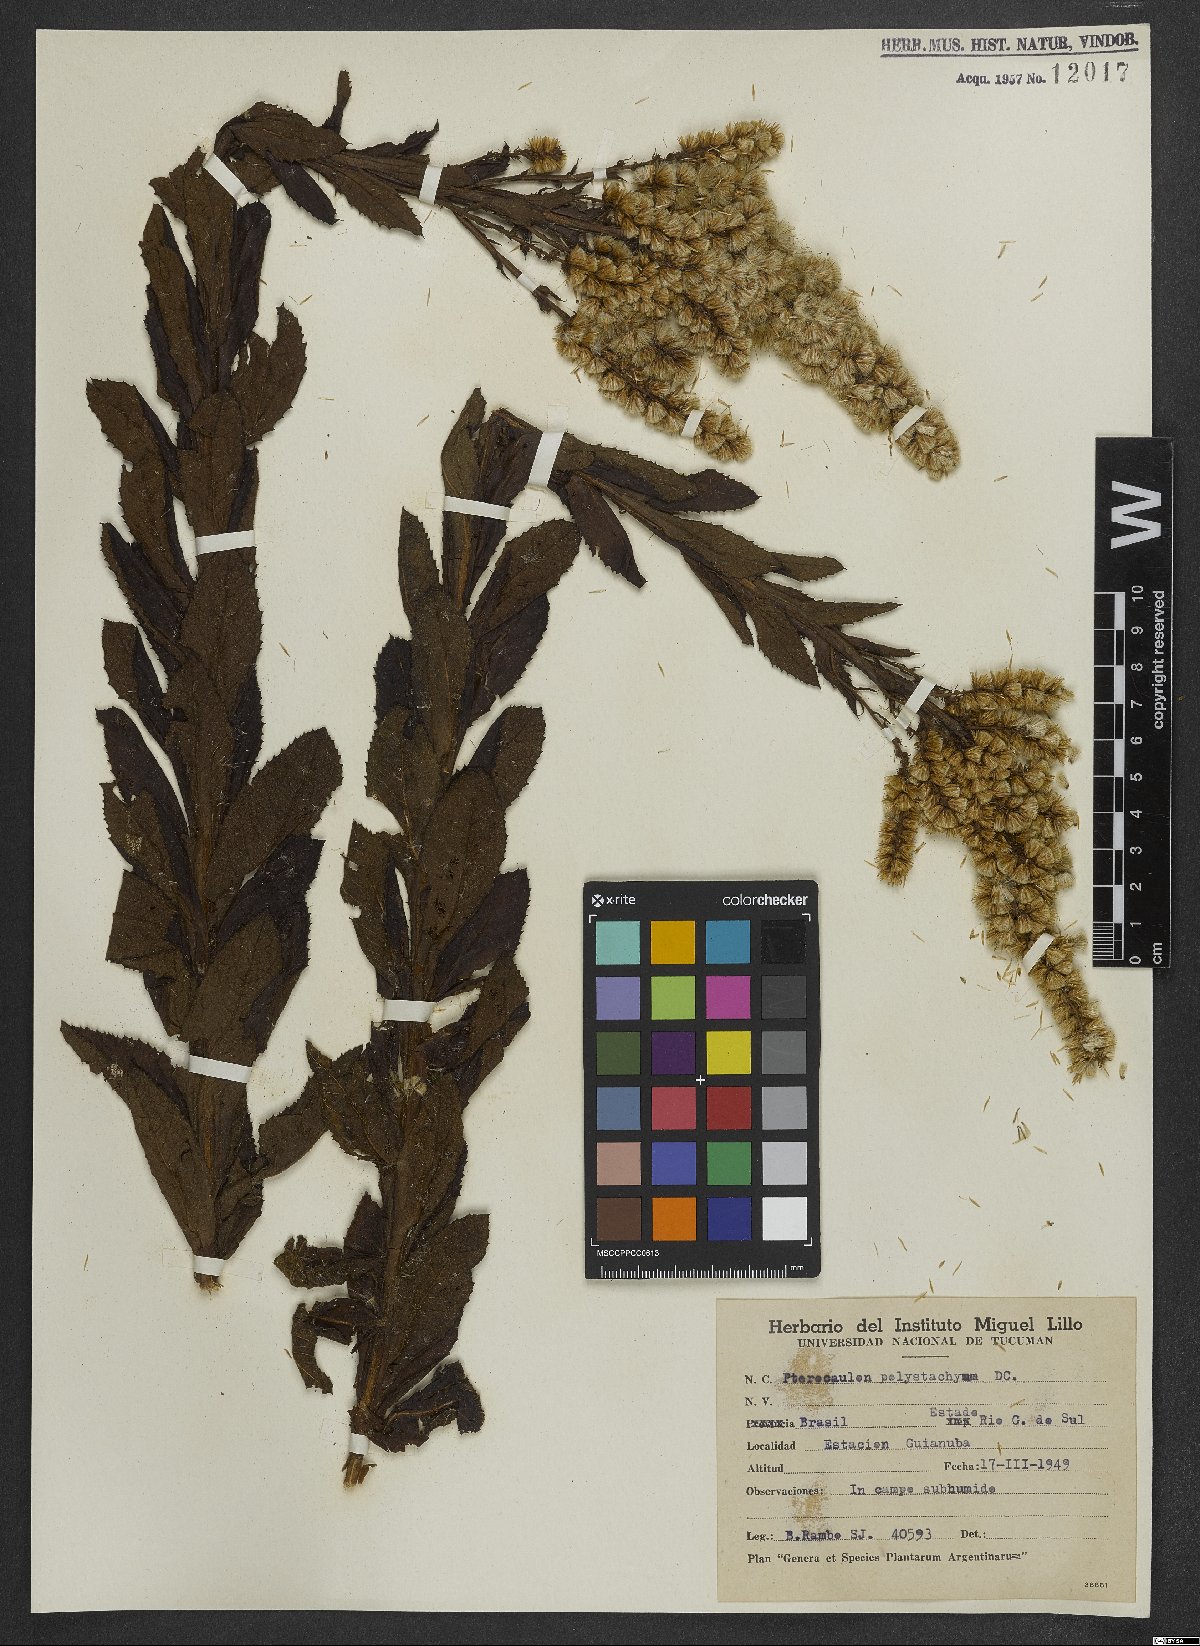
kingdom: Plantae
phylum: Tracheophyta
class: Magnoliopsida
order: Asterales
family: Asteraceae
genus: Pterocaulon
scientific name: Pterocaulon polystachyum
